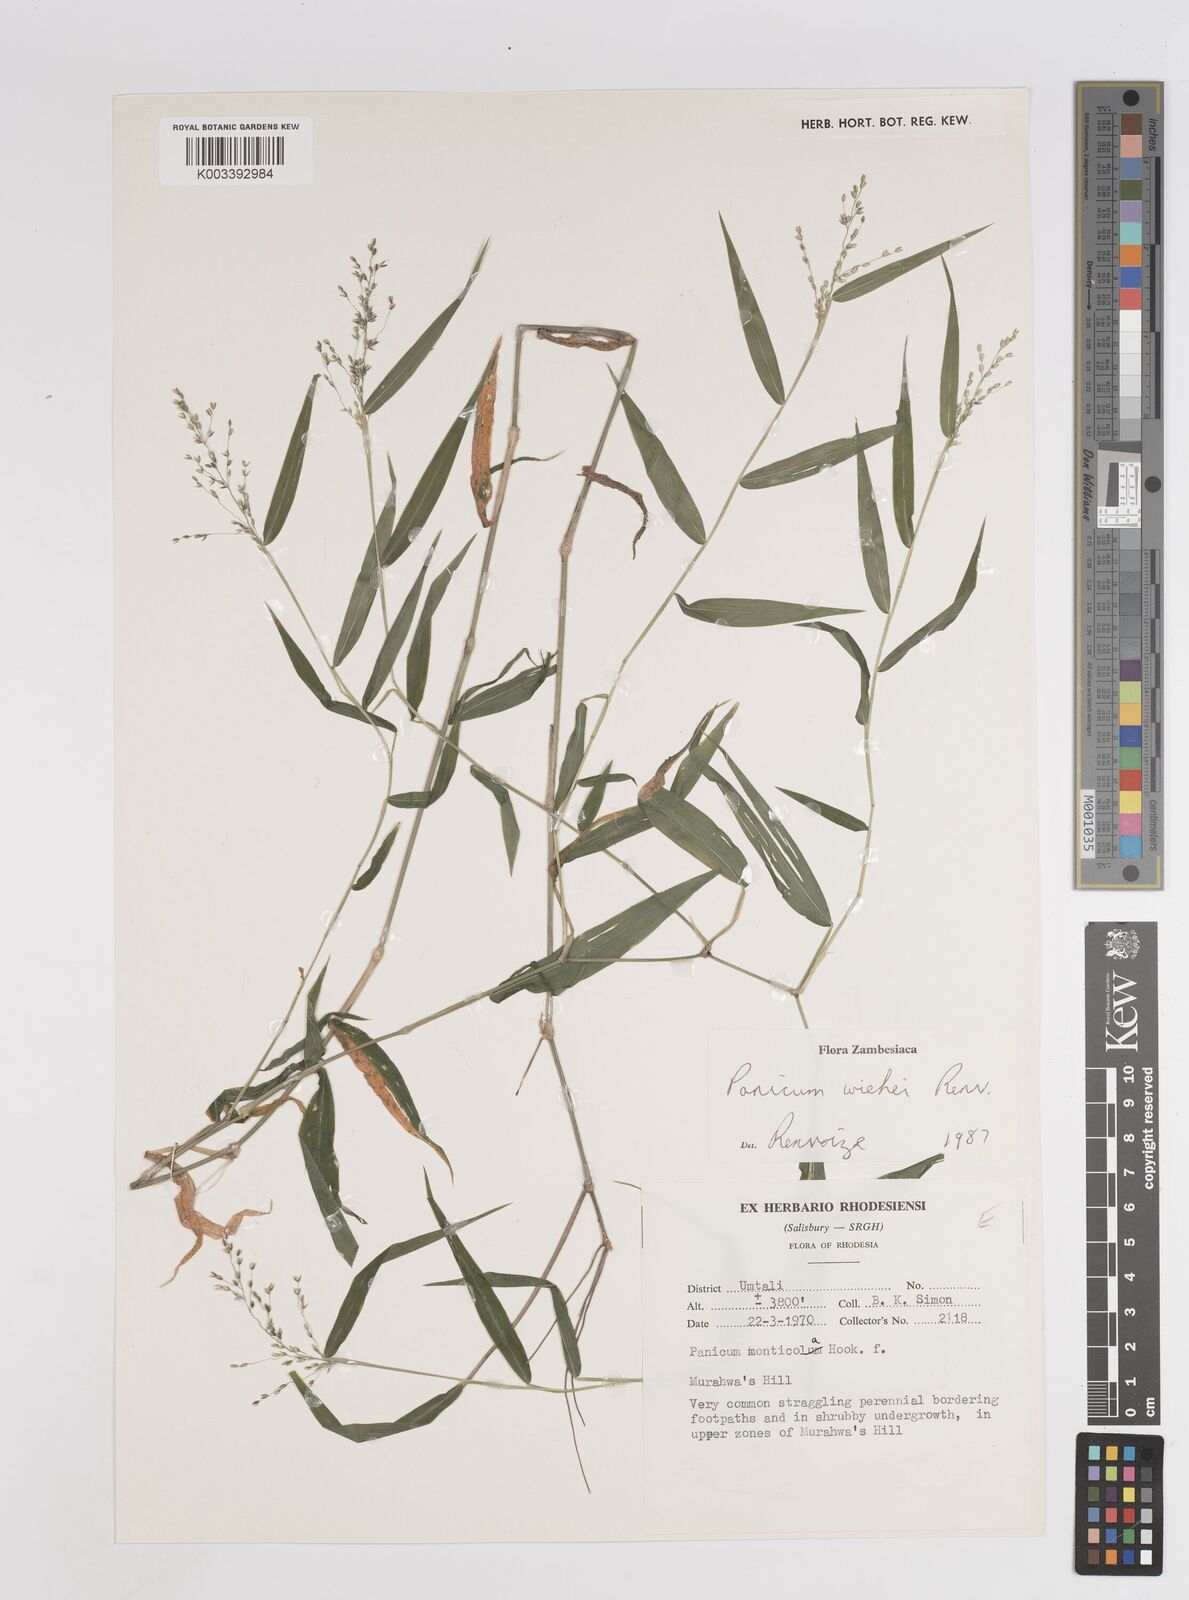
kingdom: Plantae
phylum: Tracheophyta
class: Liliopsida
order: Poales
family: Poaceae
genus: Panicum
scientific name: Panicum wiehei
